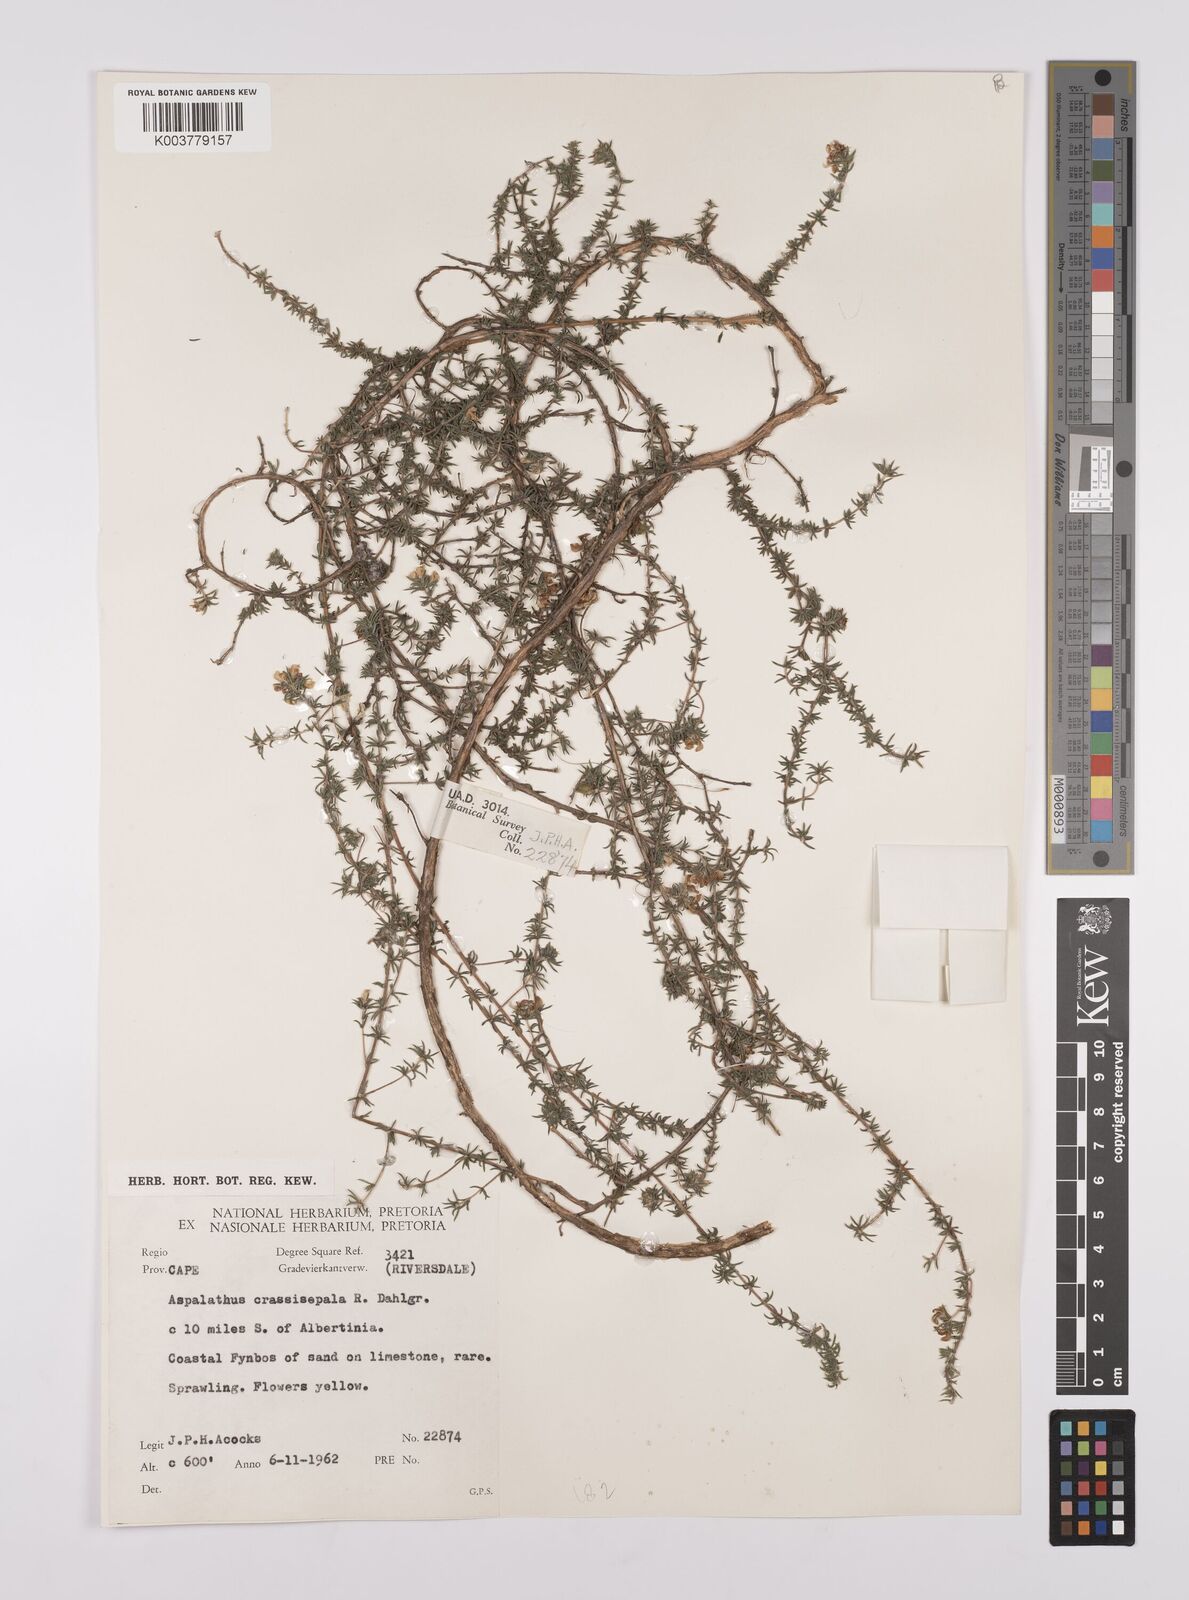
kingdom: Plantae
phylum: Tracheophyta
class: Magnoliopsida
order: Fabales
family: Fabaceae
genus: Aspalathus
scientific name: Aspalathus crassisepala
